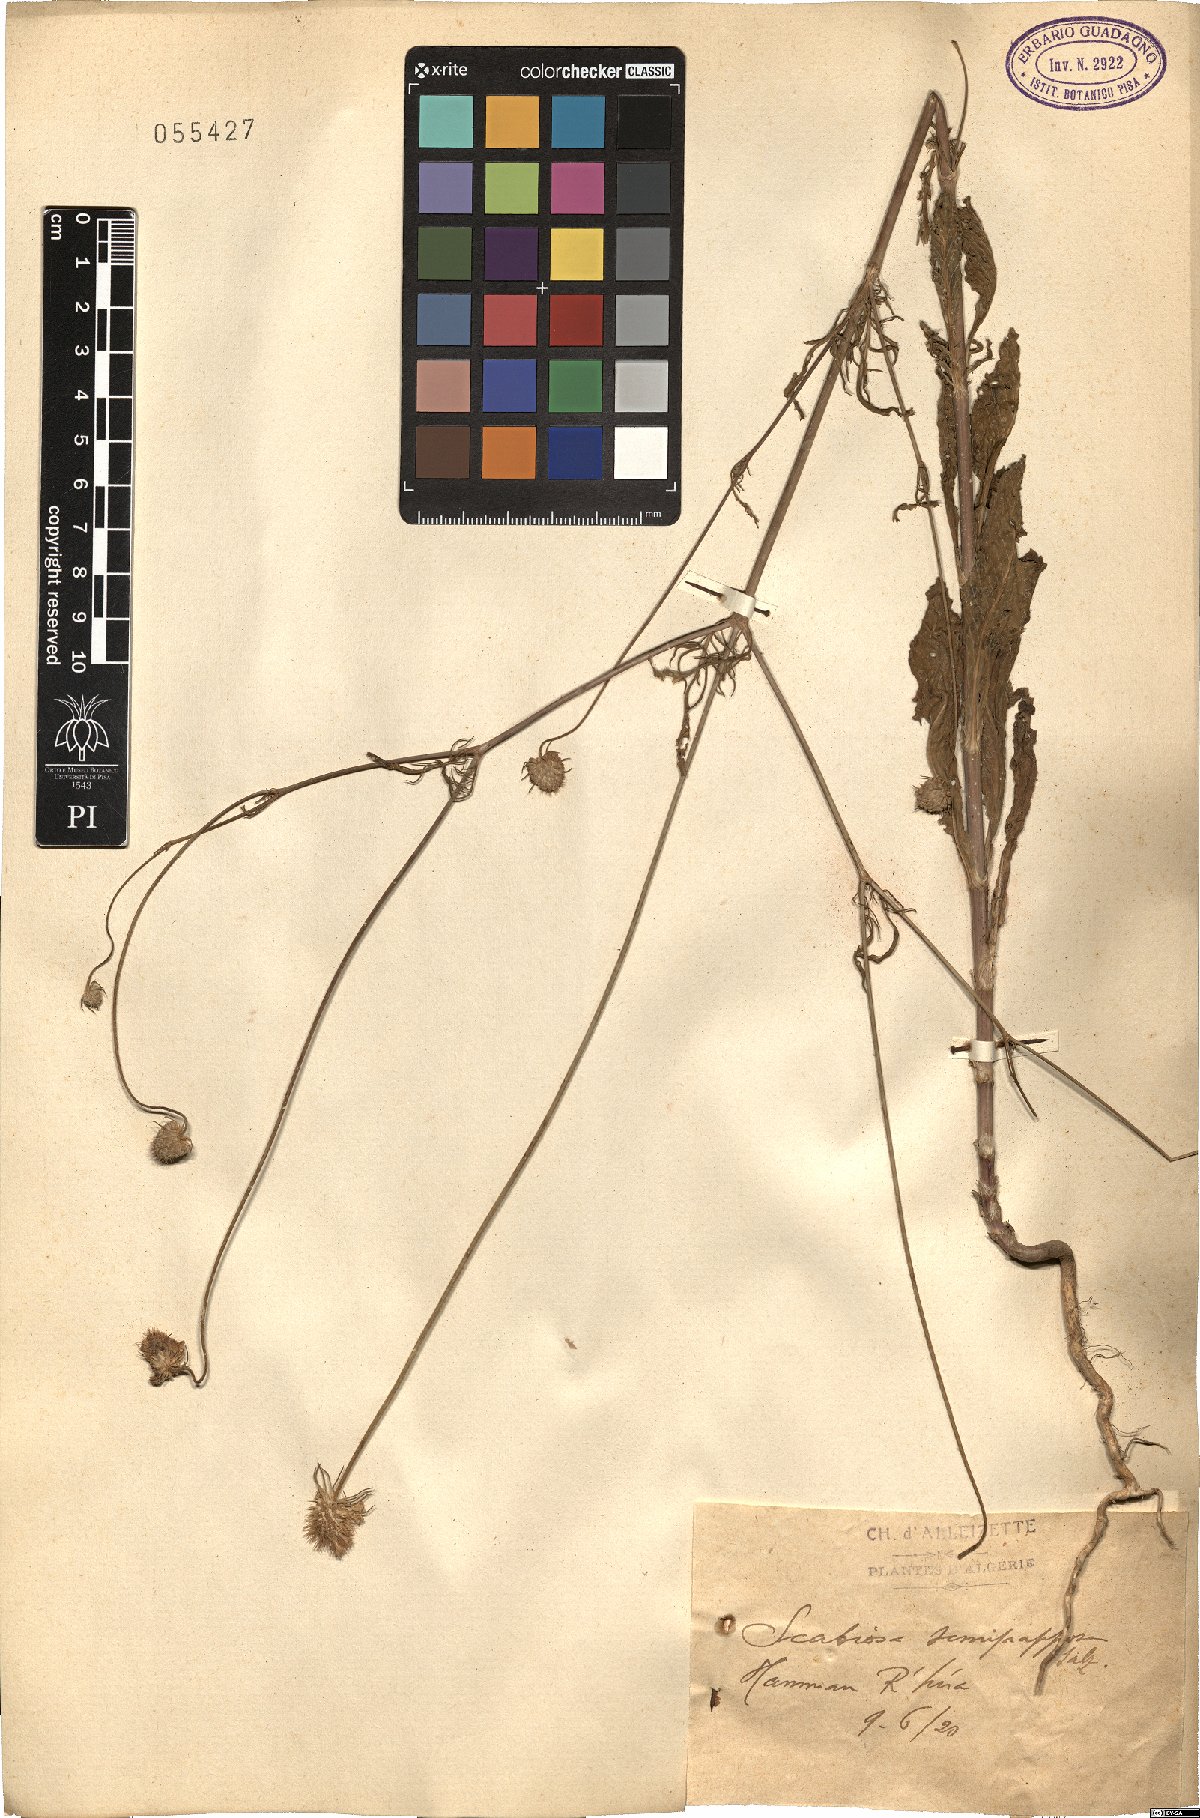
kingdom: Plantae
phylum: Tracheophyta
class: Magnoliopsida
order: Dipsacales
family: Caprifoliaceae
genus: Sixalix
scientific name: Sixalix semipapposa
